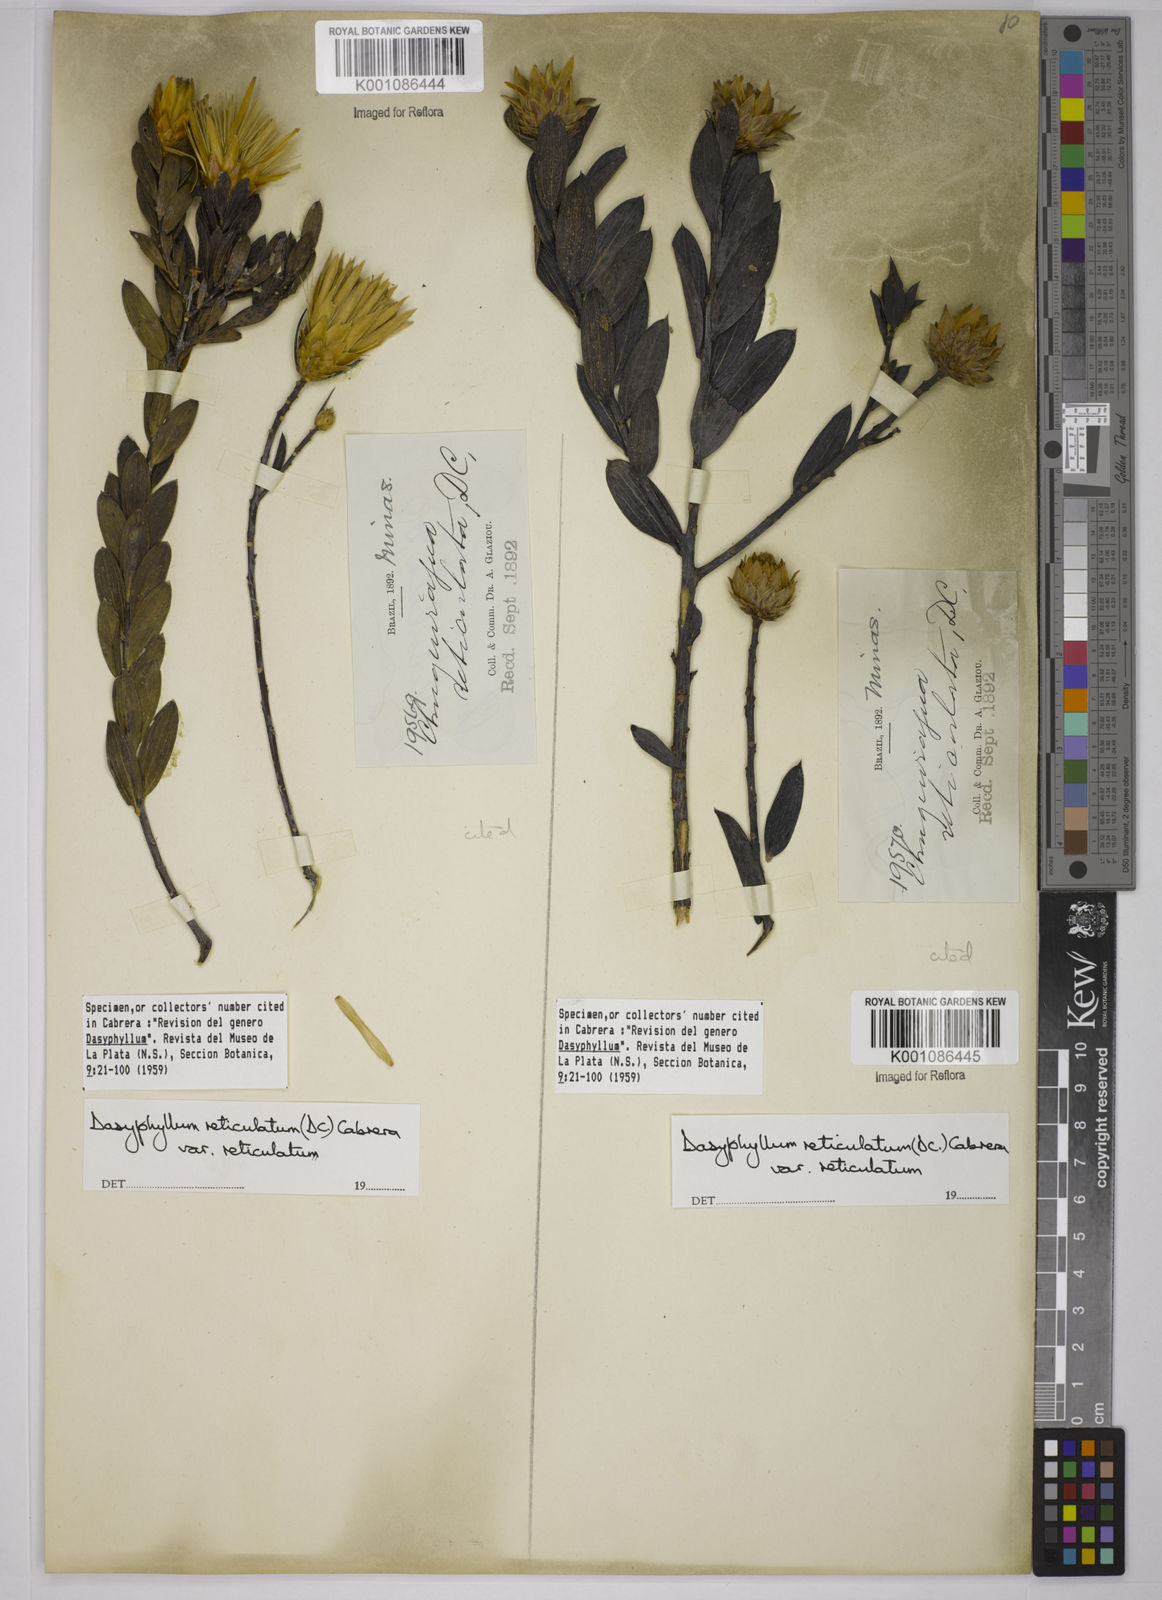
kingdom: Plantae
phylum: Tracheophyta
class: Magnoliopsida
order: Asterales
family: Asteraceae
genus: Dasyphyllum
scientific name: Dasyphyllum reticulatum
